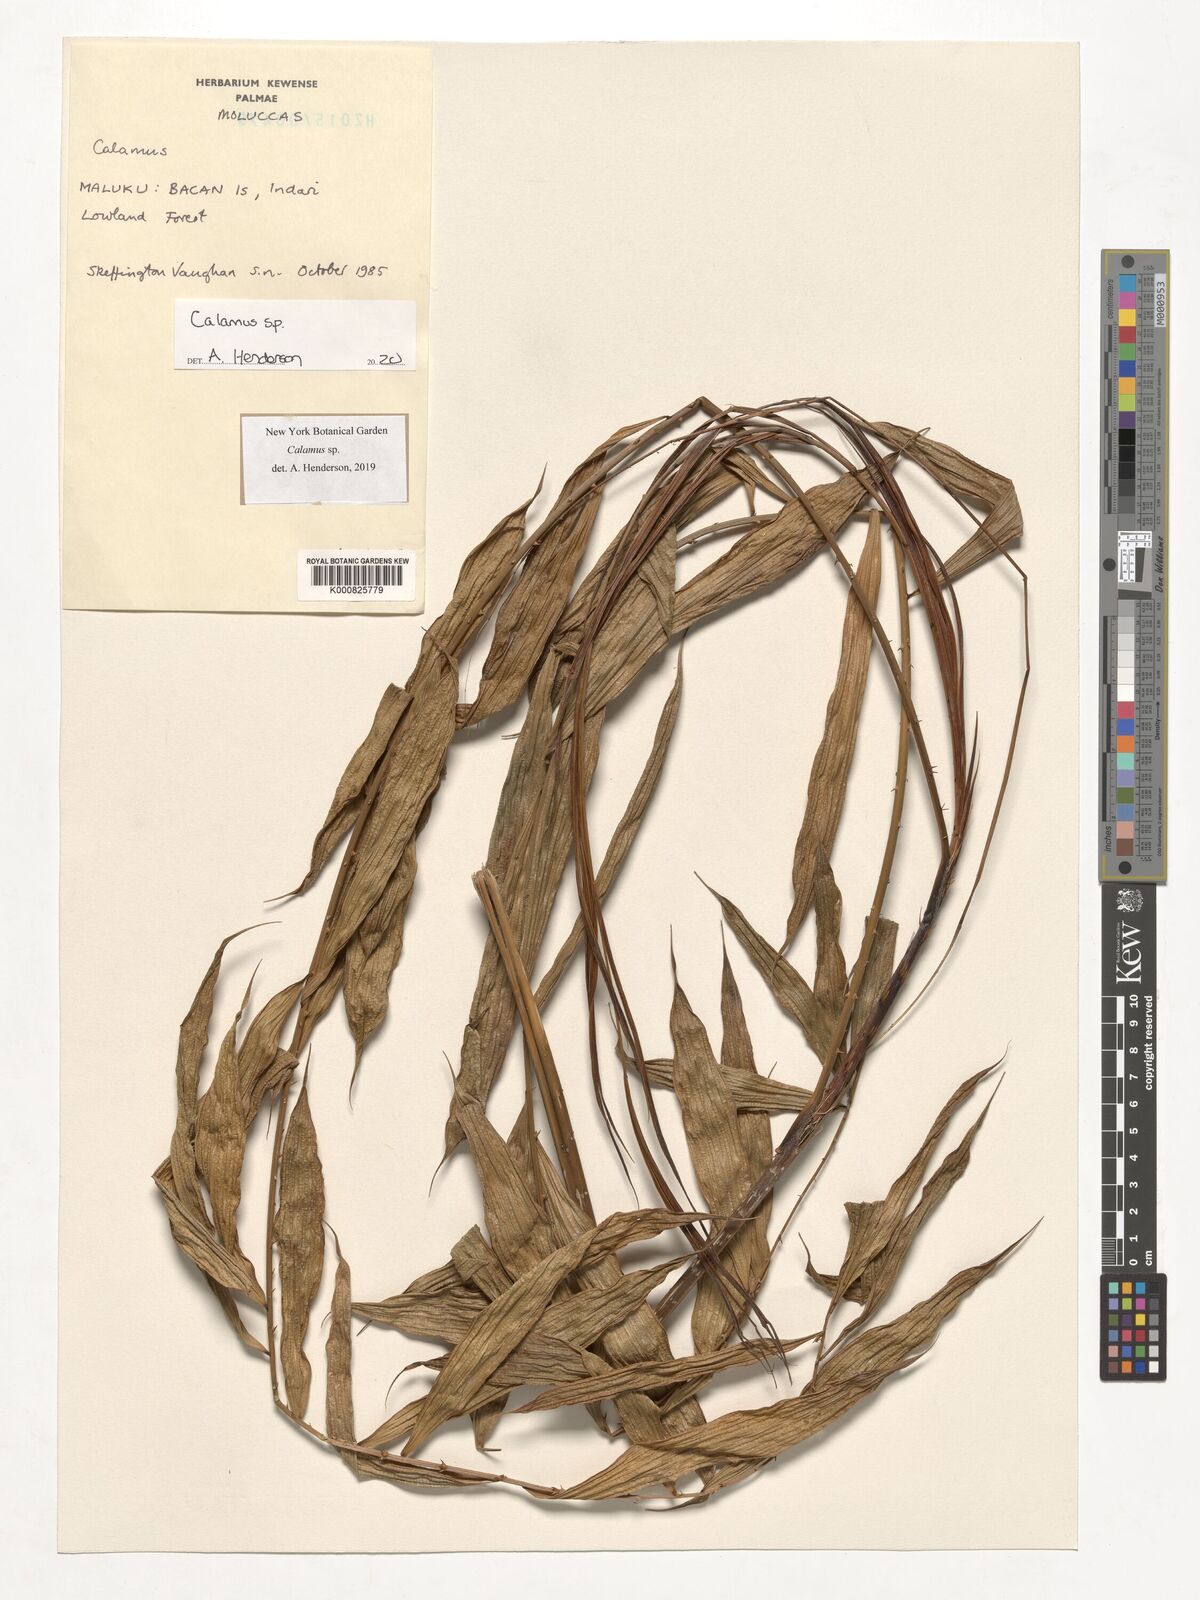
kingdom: Plantae
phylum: Tracheophyta
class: Liliopsida
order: Arecales
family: Arecaceae
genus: Calamus
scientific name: Calamus
